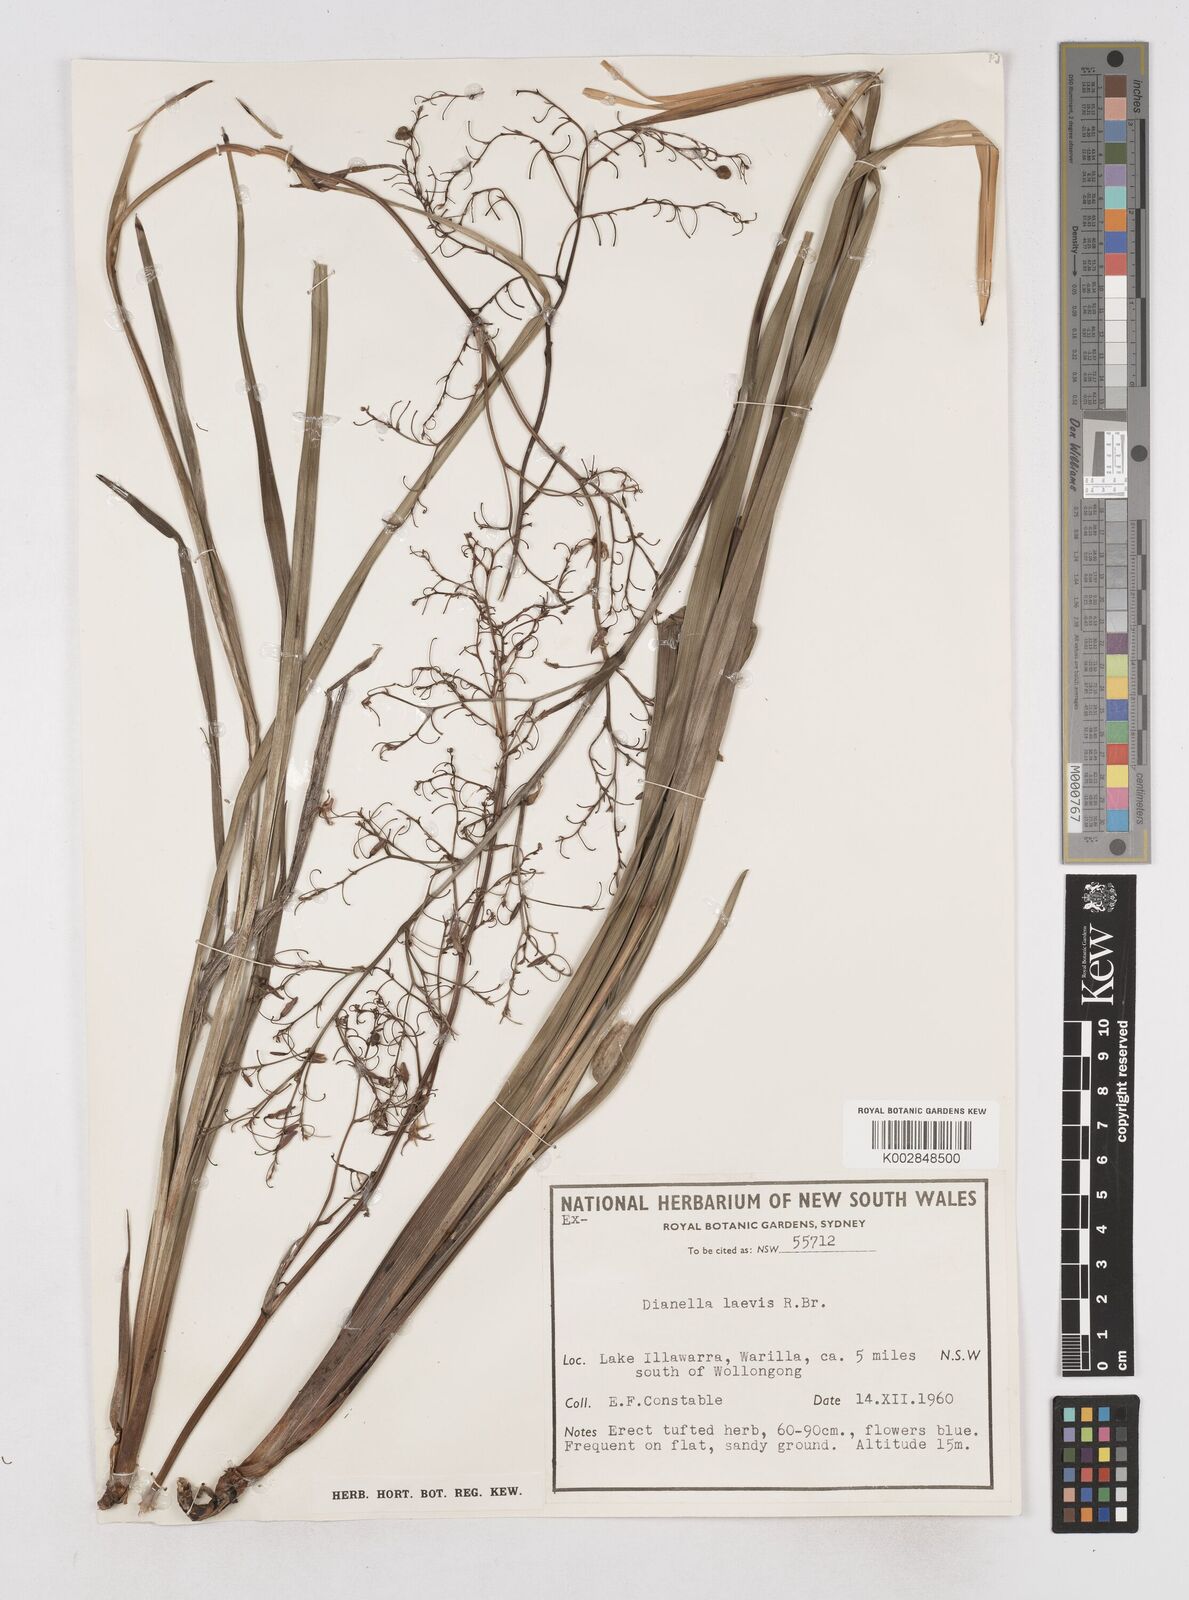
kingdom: Plantae
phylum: Tracheophyta
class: Liliopsida
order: Asparagales
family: Asphodelaceae
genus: Dianella
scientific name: Dianella longifolia
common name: Blue flax-lily
